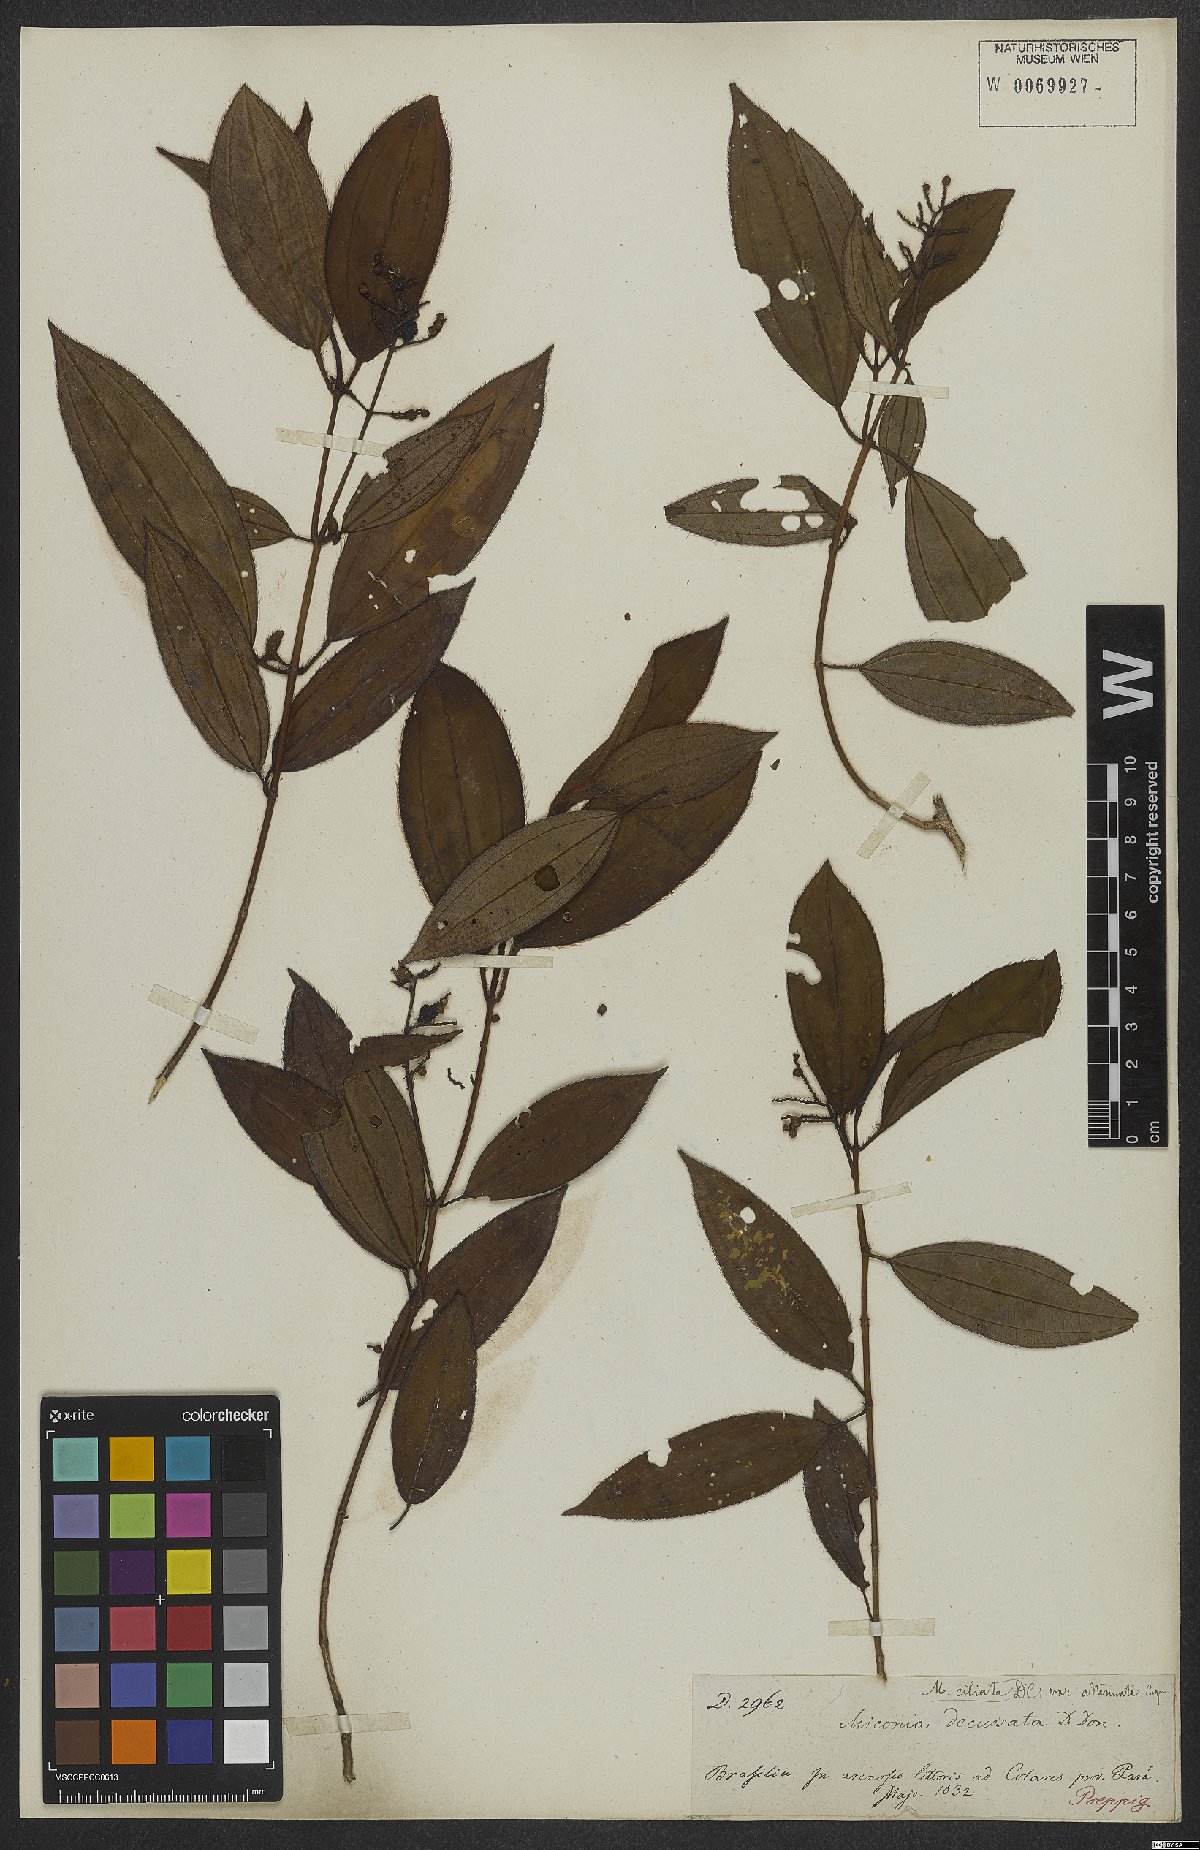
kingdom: Plantae
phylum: Tracheophyta
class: Magnoliopsida
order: Myrtales
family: Melastomataceae
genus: Miconia
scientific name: Miconia ciliata
